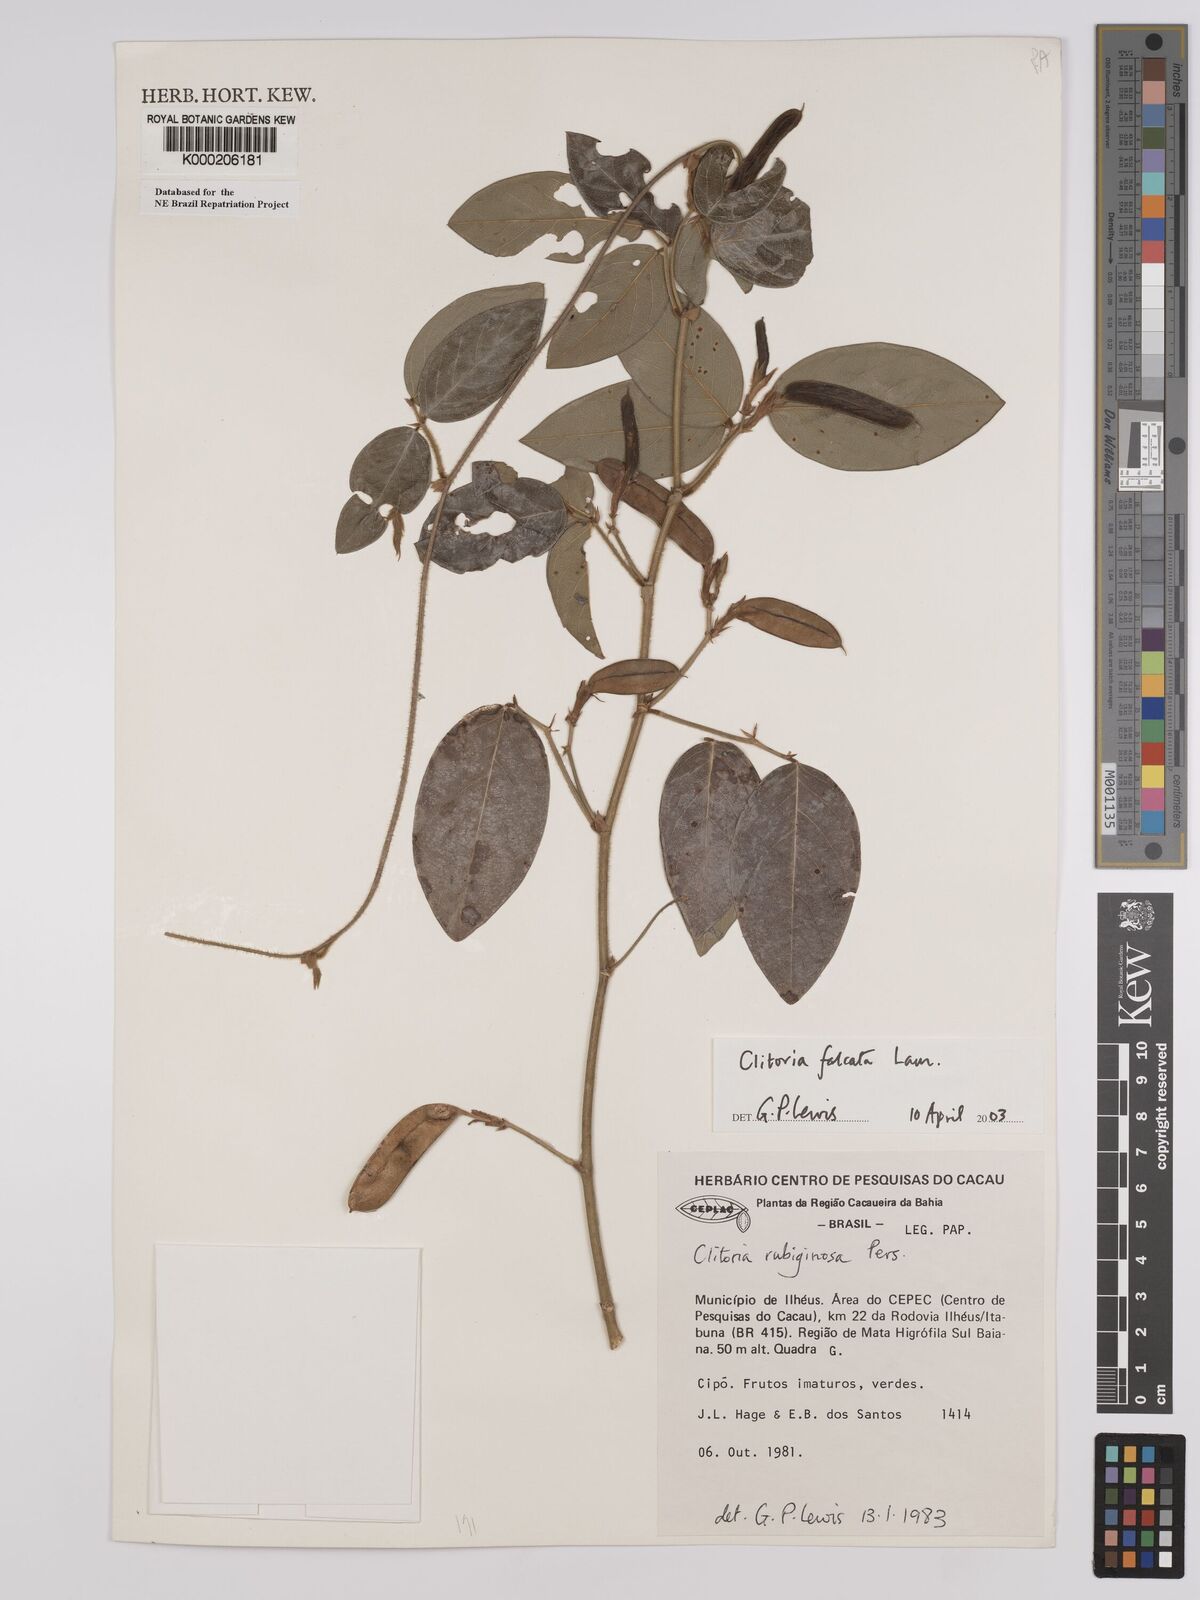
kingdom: Plantae
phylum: Tracheophyta
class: Magnoliopsida
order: Fabales
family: Fabaceae
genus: Clitoria
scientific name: Clitoria falcata
